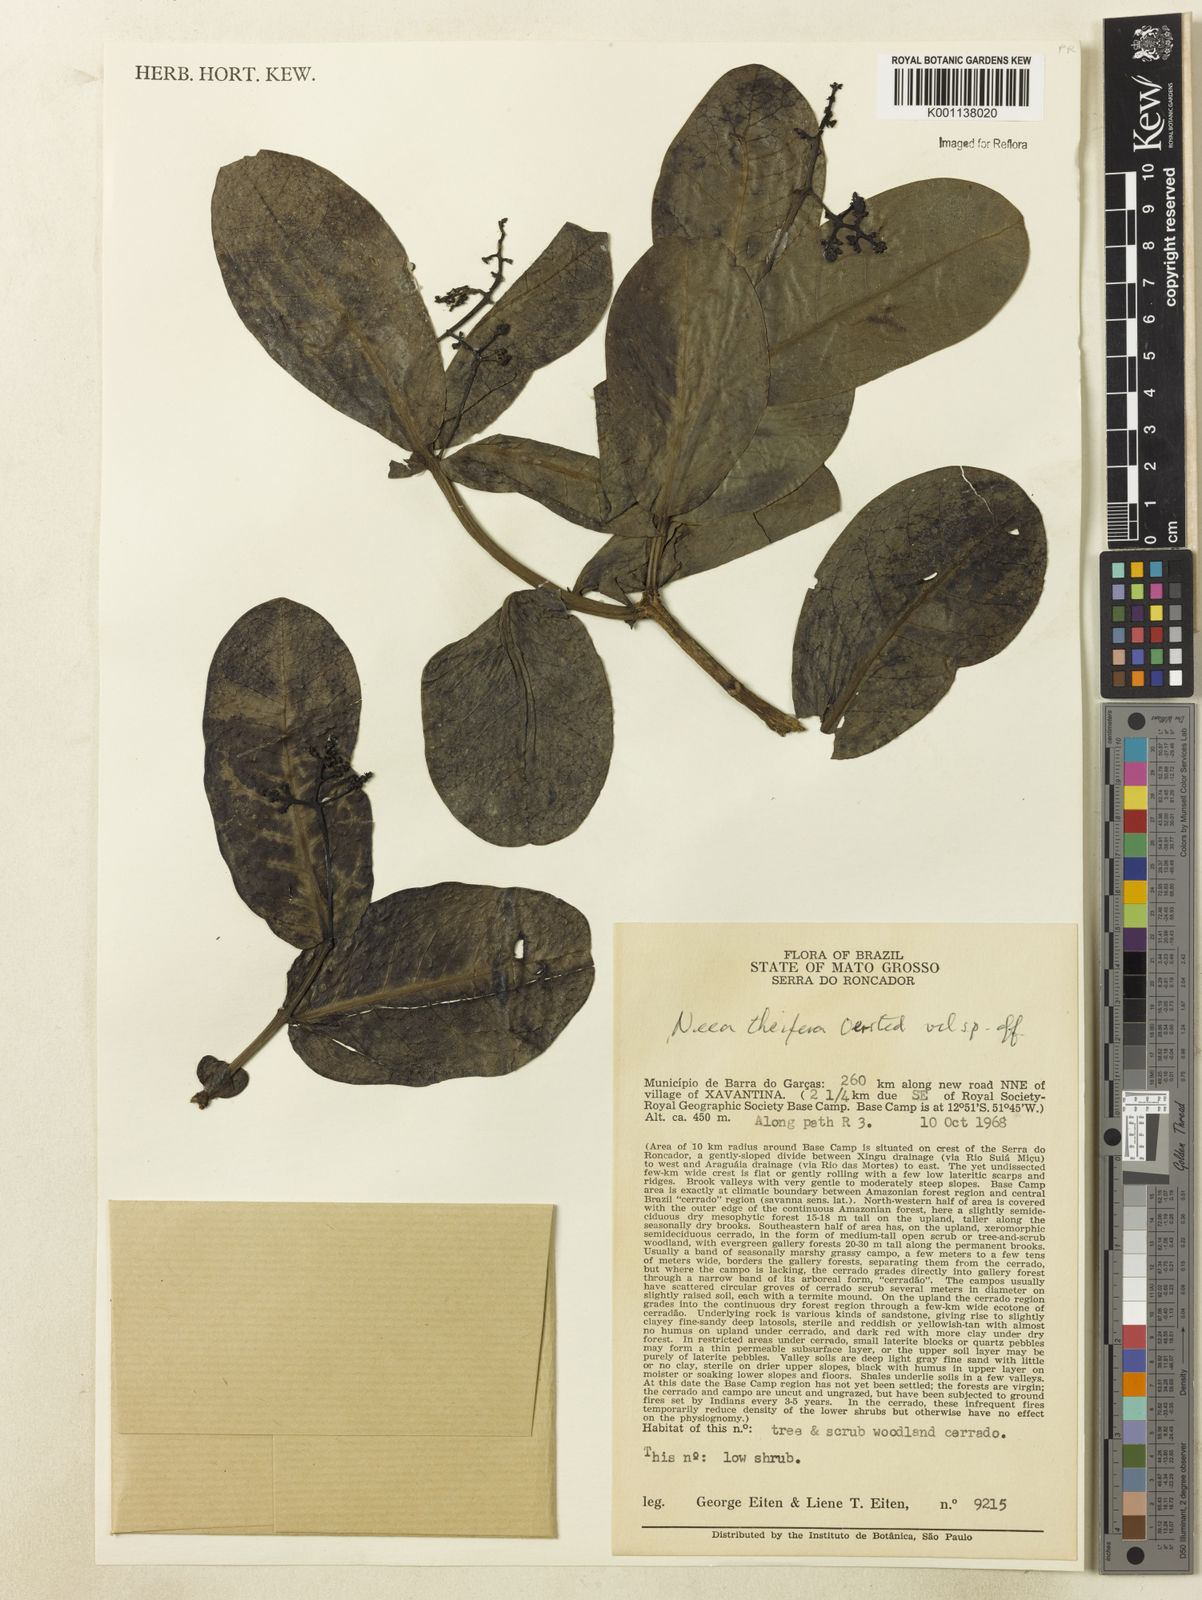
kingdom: Plantae
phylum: Tracheophyta
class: Magnoliopsida
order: Caryophyllales
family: Nyctaginaceae
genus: Neea
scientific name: Neea theifera
